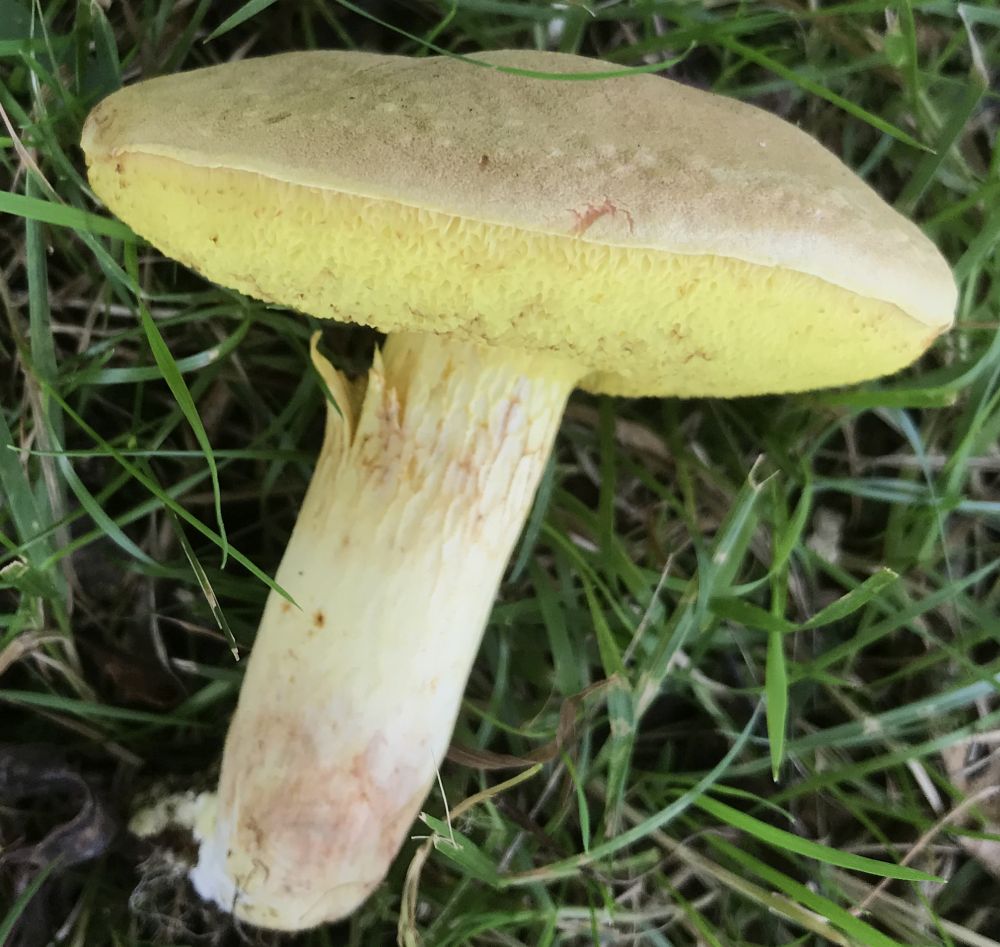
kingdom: Fungi
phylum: Basidiomycota
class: Agaricomycetes
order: Boletales
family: Boletaceae
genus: Xerocomus
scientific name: Xerocomus subtomentosus
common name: filtet rørhat
